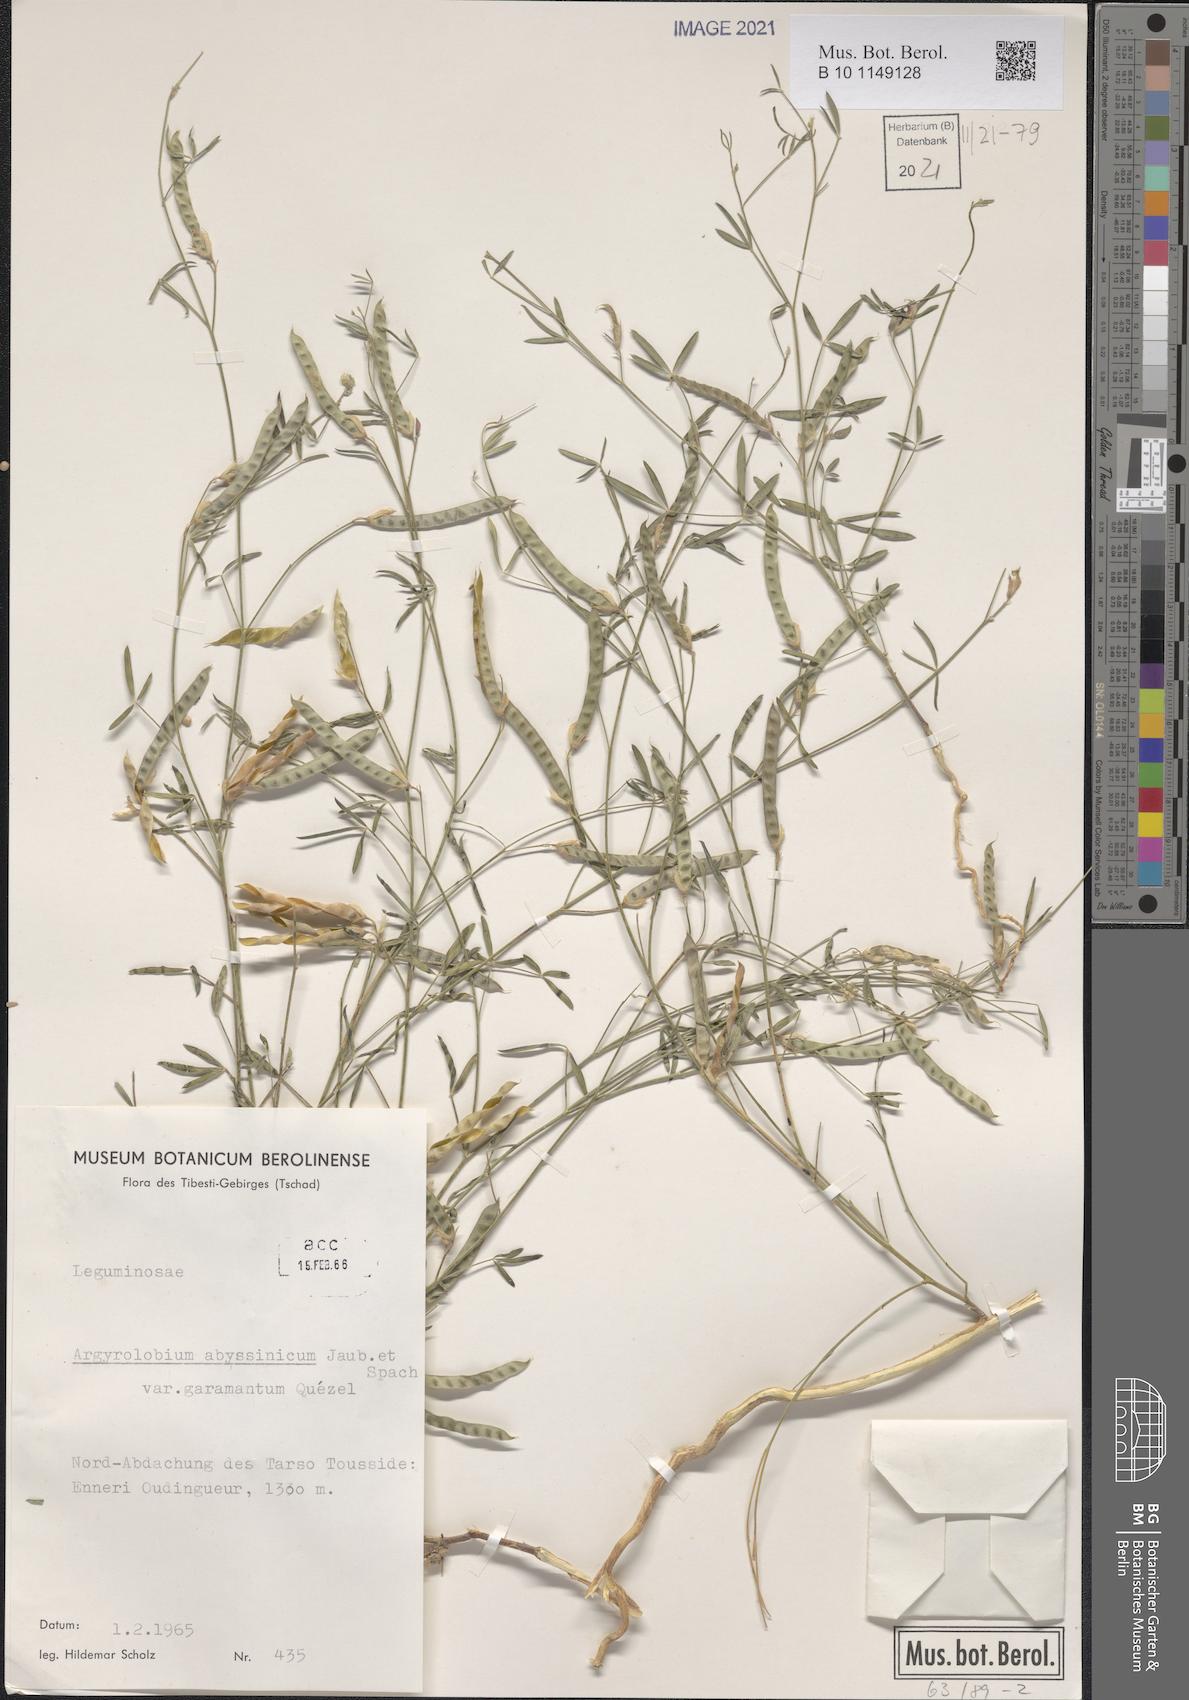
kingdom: Plantae
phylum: Tracheophyta
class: Magnoliopsida
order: Fabales
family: Fabaceae
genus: Argyrolobium
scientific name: Argyrolobium arabicum
